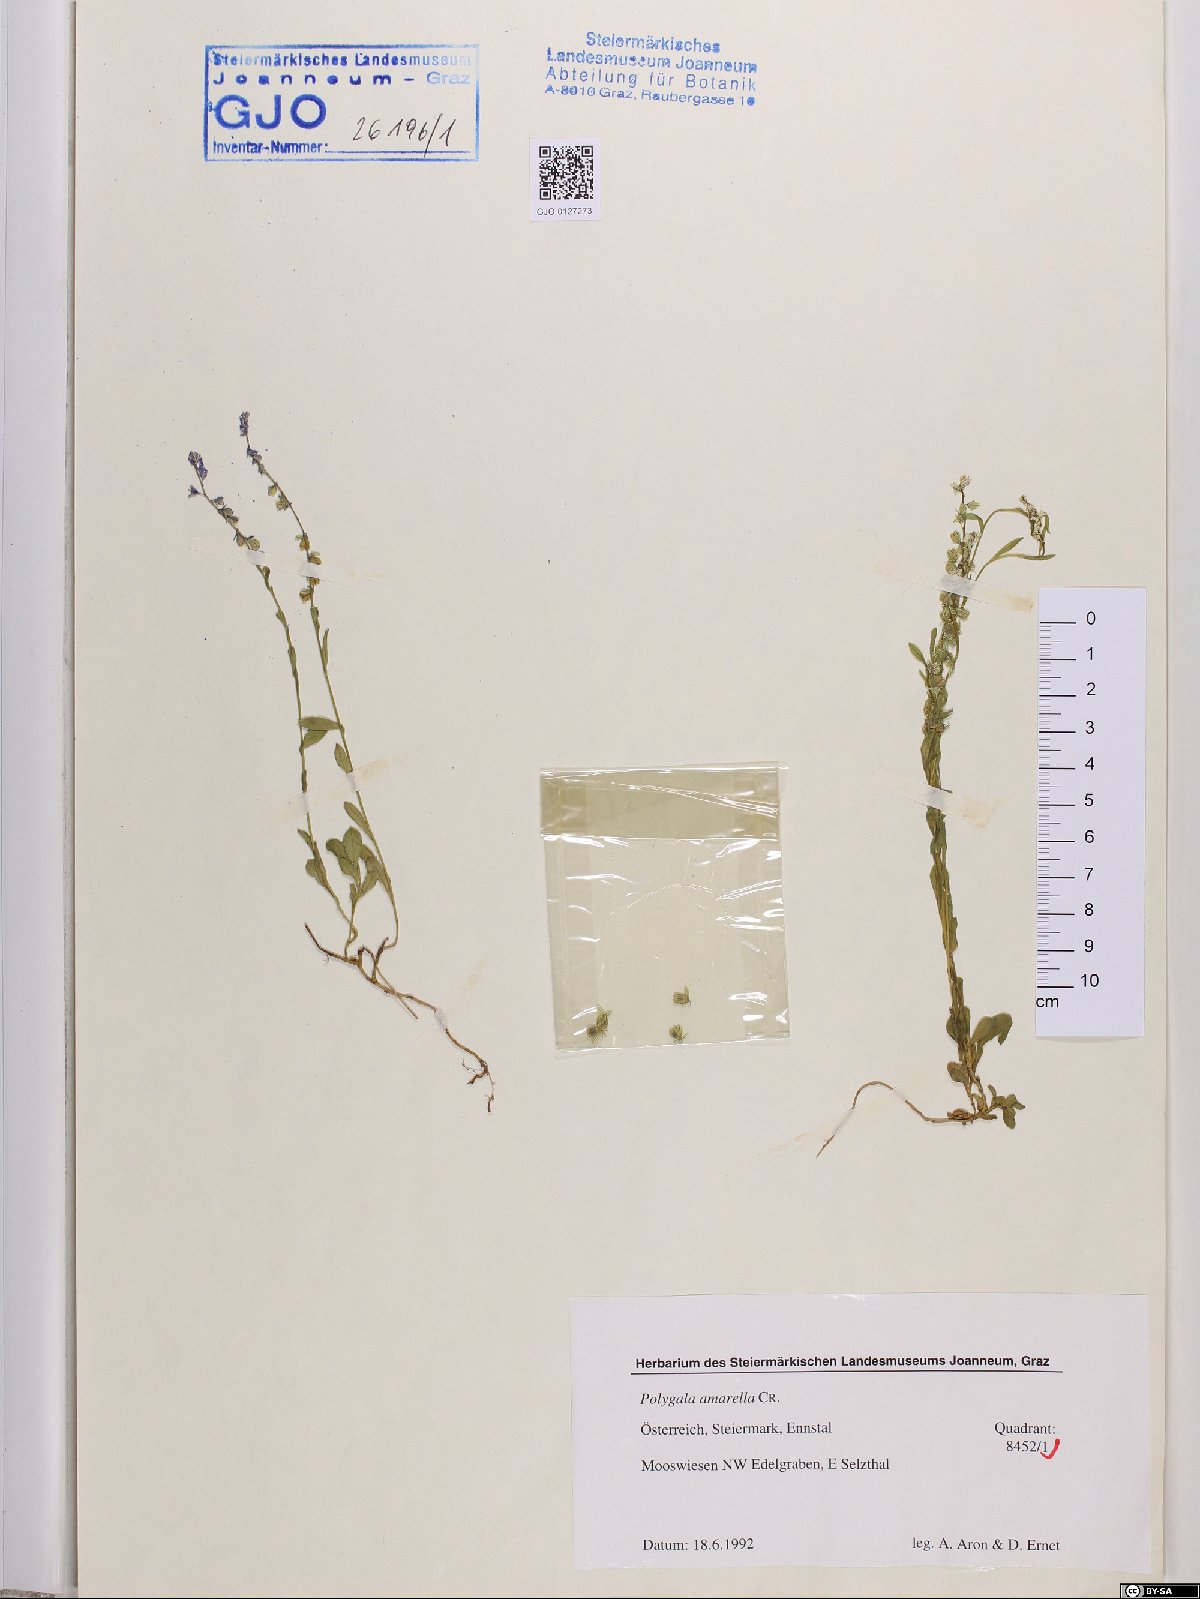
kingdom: Plantae
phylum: Tracheophyta
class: Magnoliopsida
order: Fabales
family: Polygalaceae
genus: Polygala
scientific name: Polygala amarella
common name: Dwarf milkwort
